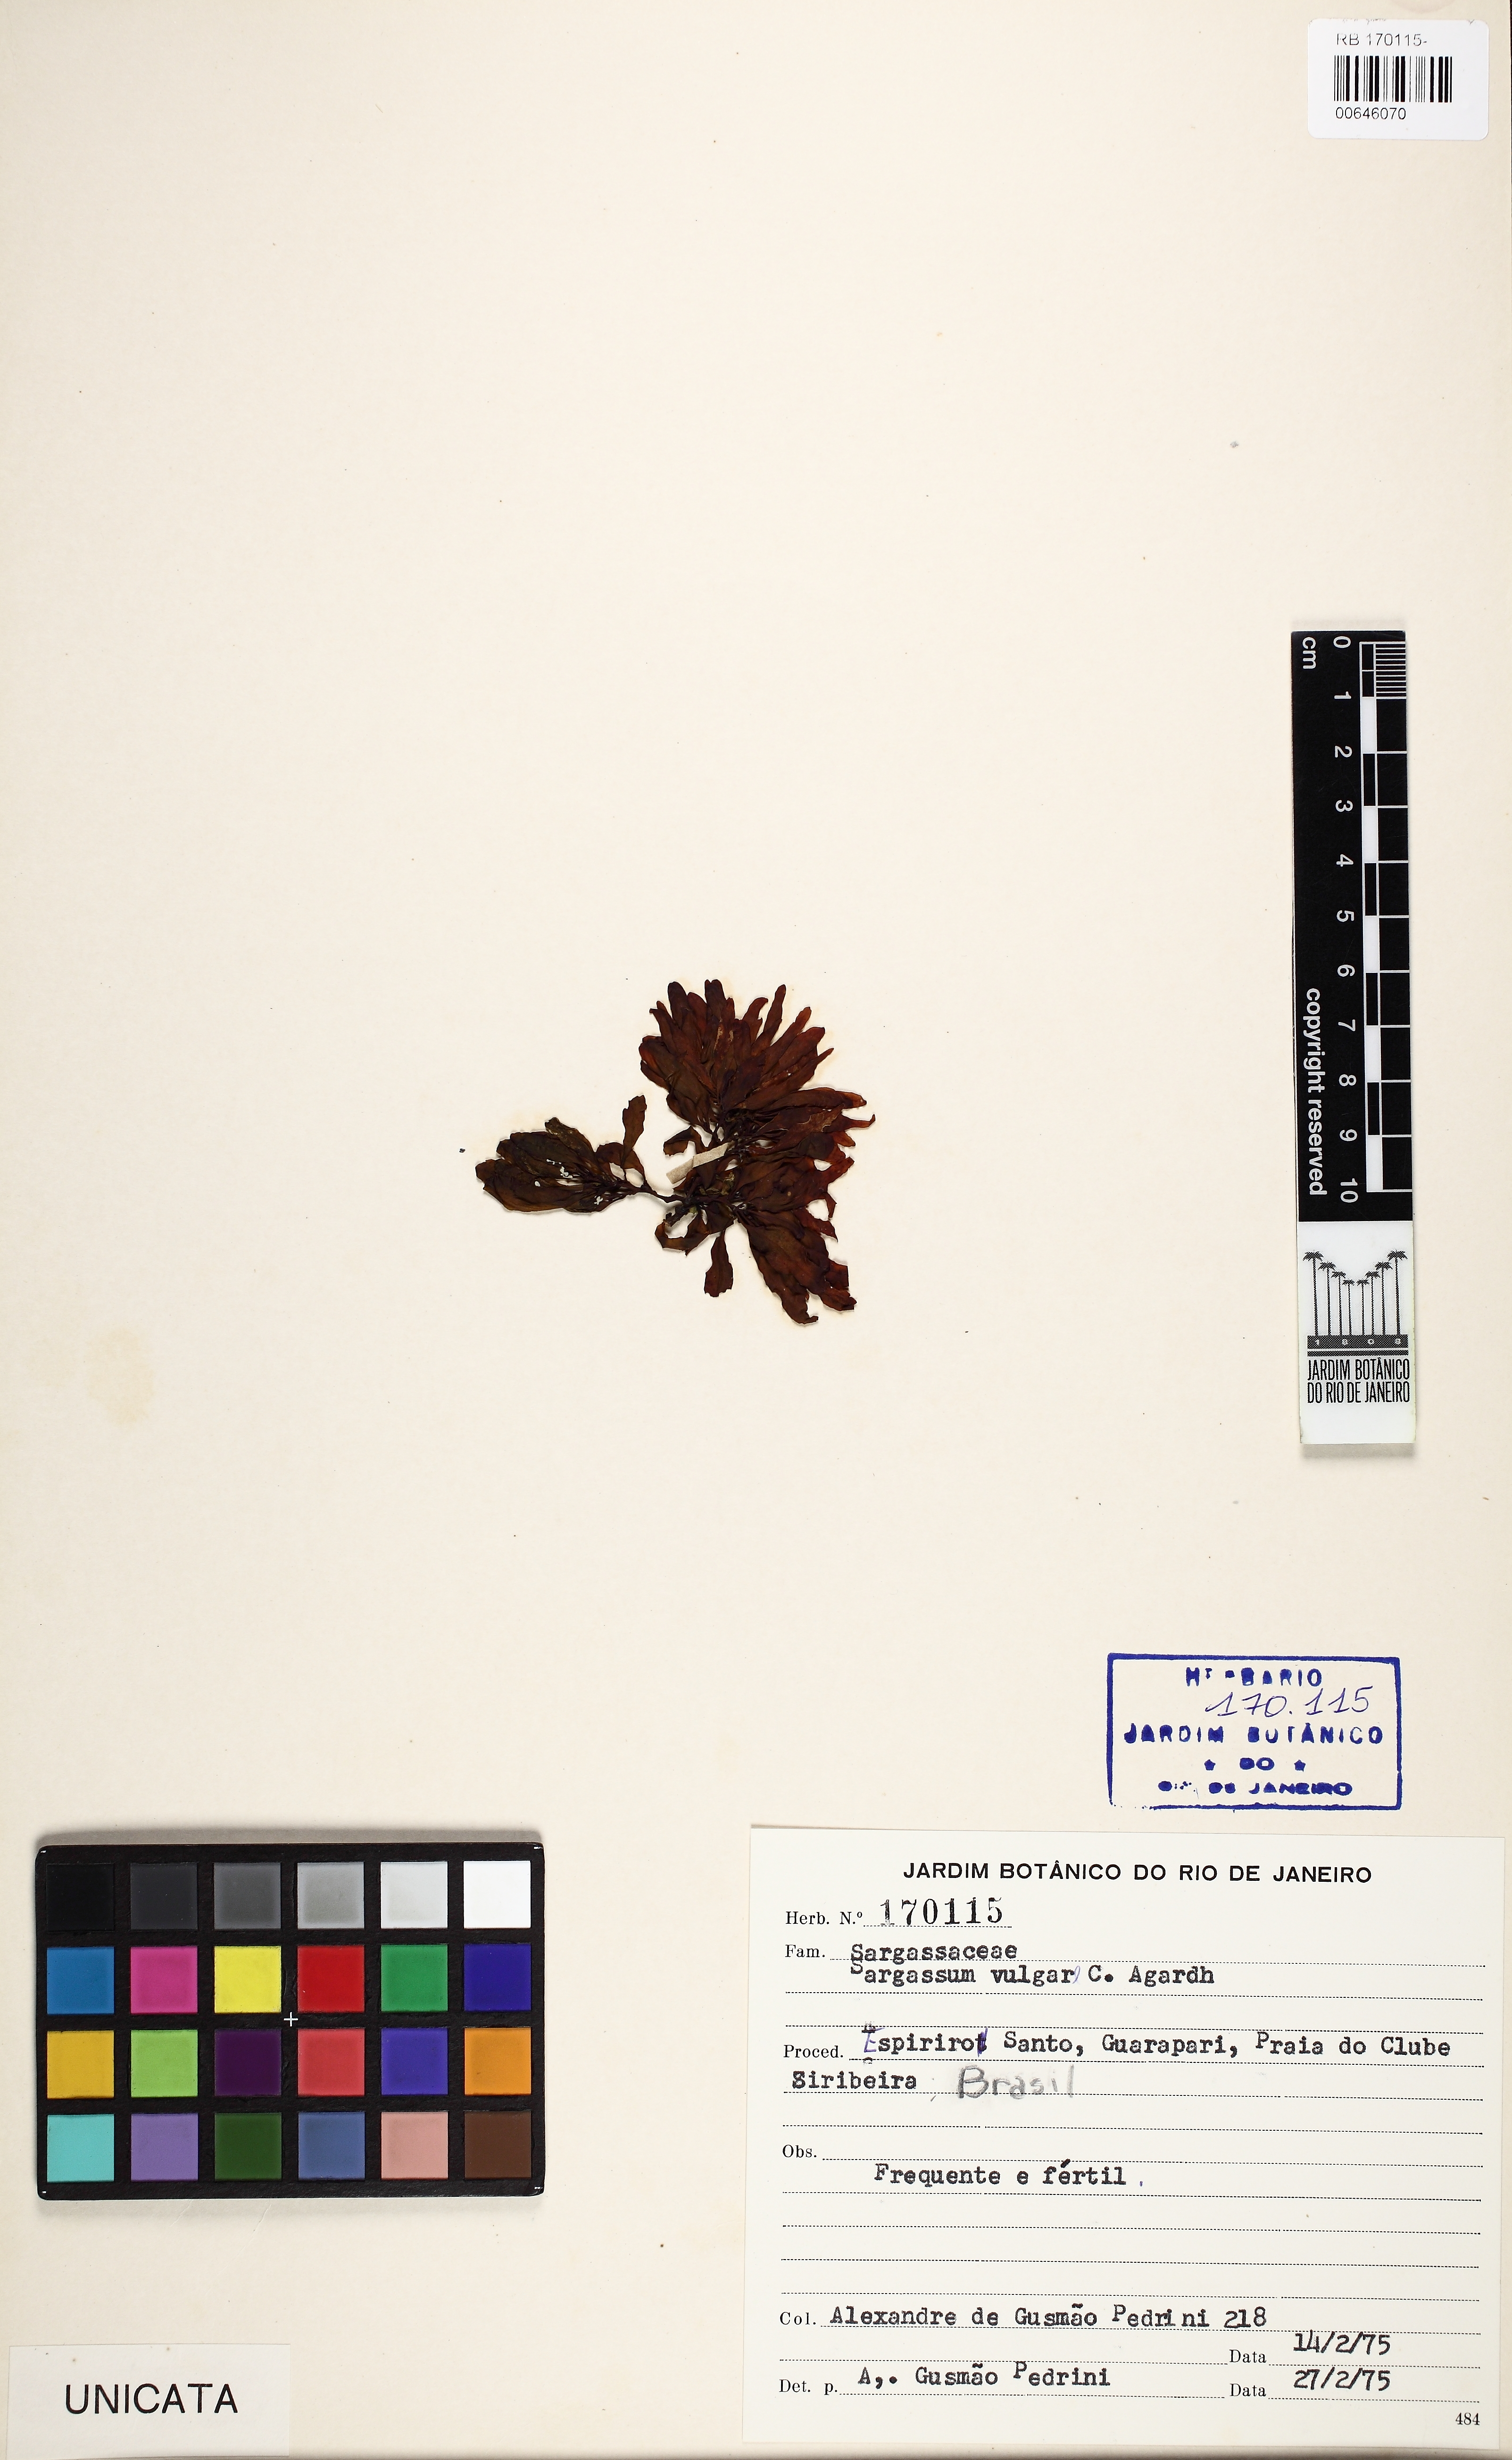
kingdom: Chromista
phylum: Ochrophyta
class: Phaeophyceae
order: Fucales
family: Sargassaceae
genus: Sargassum
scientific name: Sargassum vulgare
